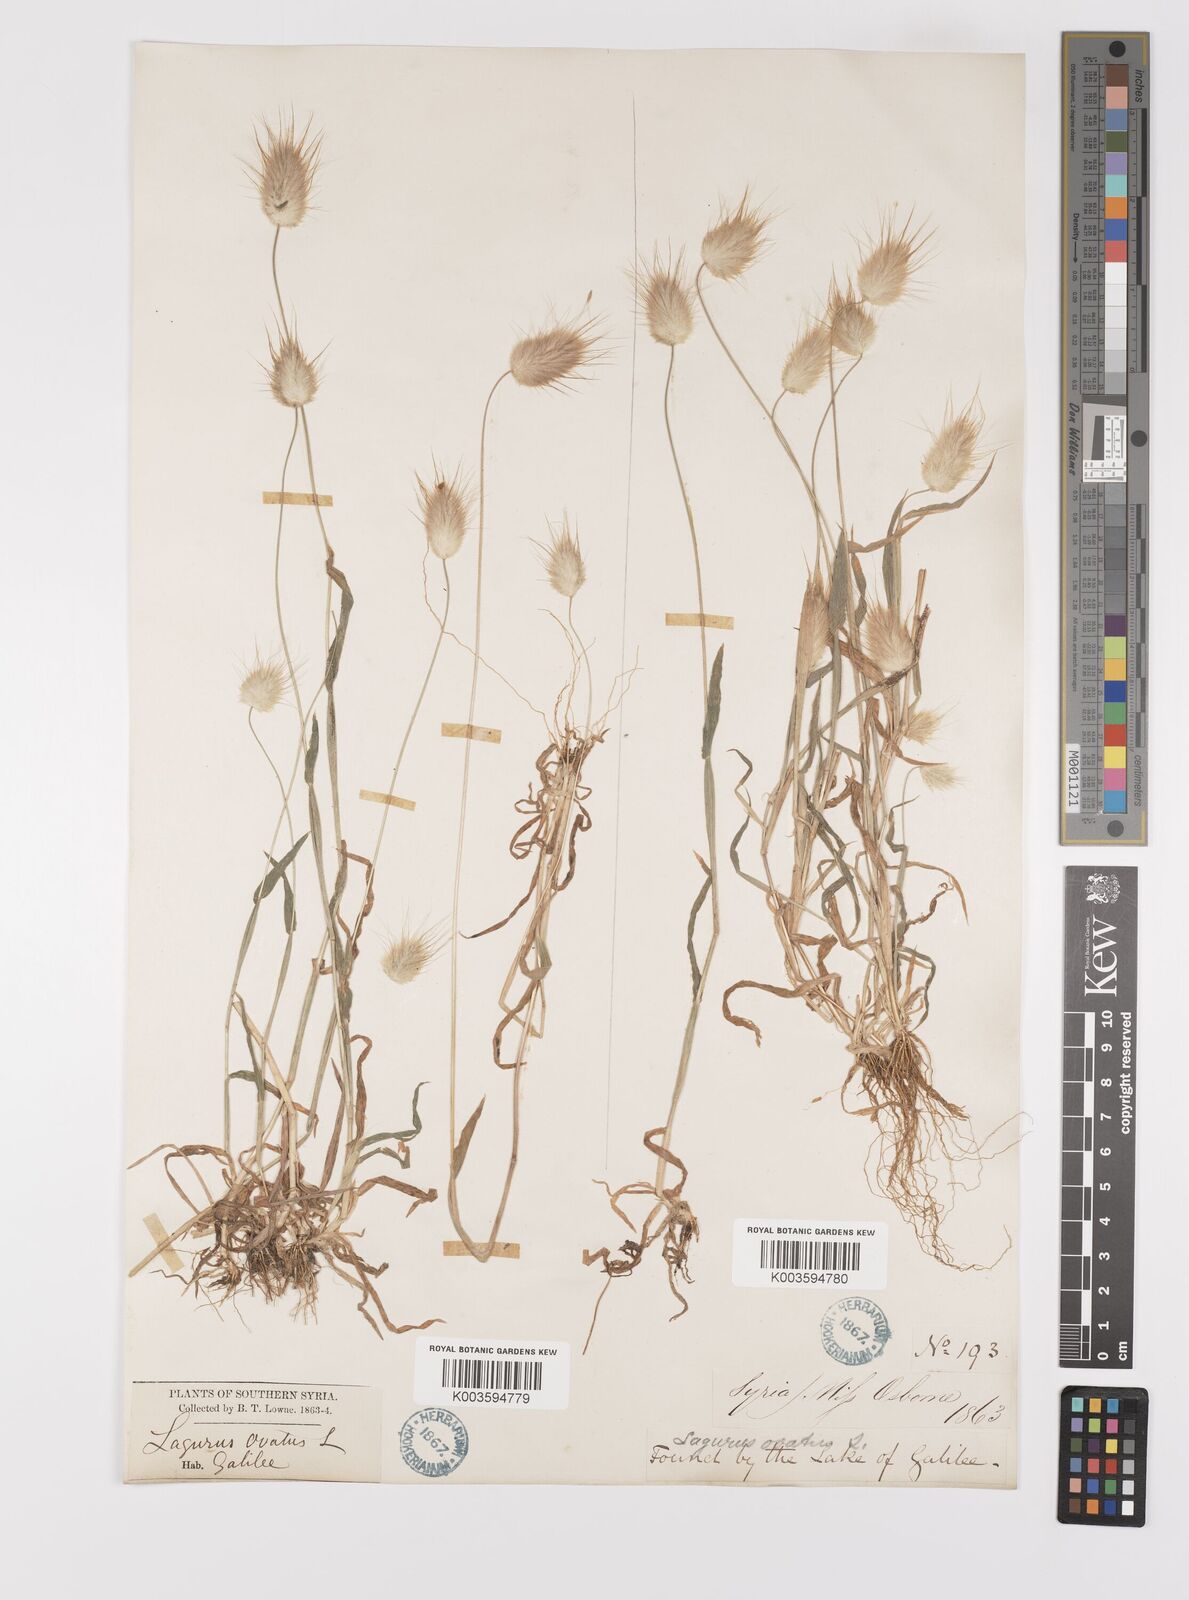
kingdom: Plantae
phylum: Tracheophyta
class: Liliopsida
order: Poales
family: Poaceae
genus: Lagurus
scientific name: Lagurus ovatus
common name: Hare's-tail
